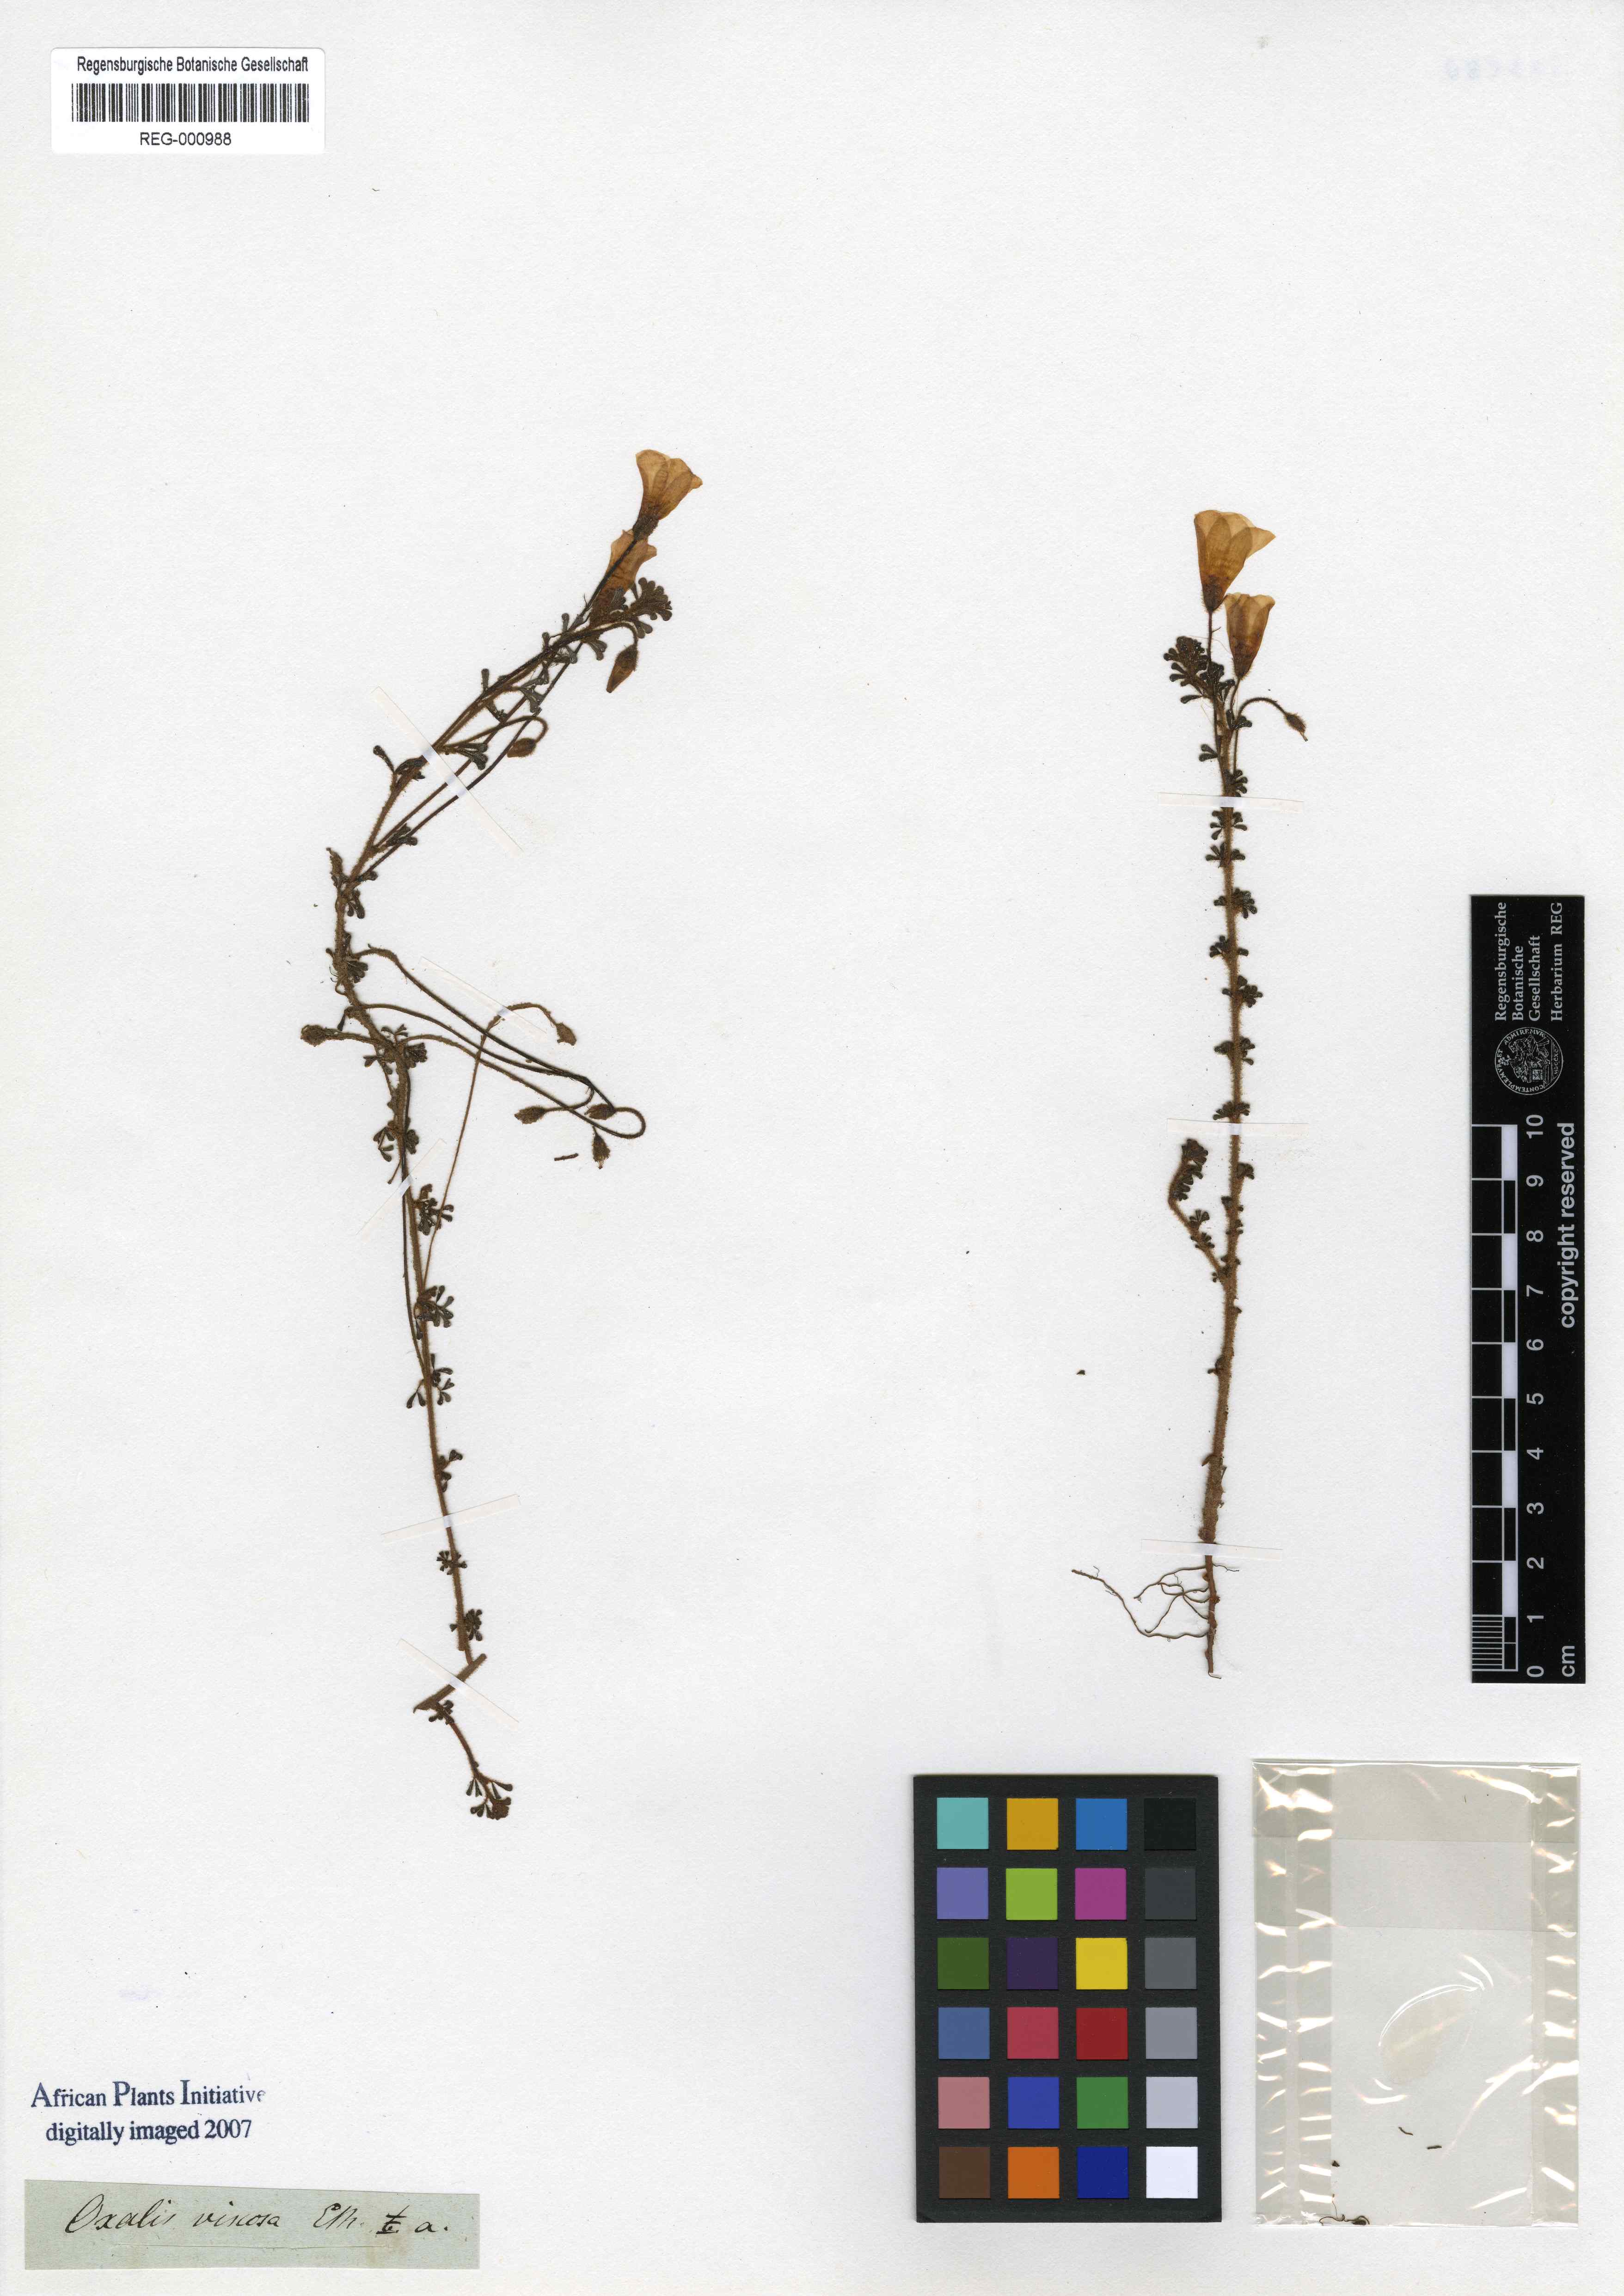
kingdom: Plantae
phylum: Tracheophyta
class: Magnoliopsida
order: Oxalidales
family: Oxalidaceae
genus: Oxalis
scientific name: Oxalis viscosa
